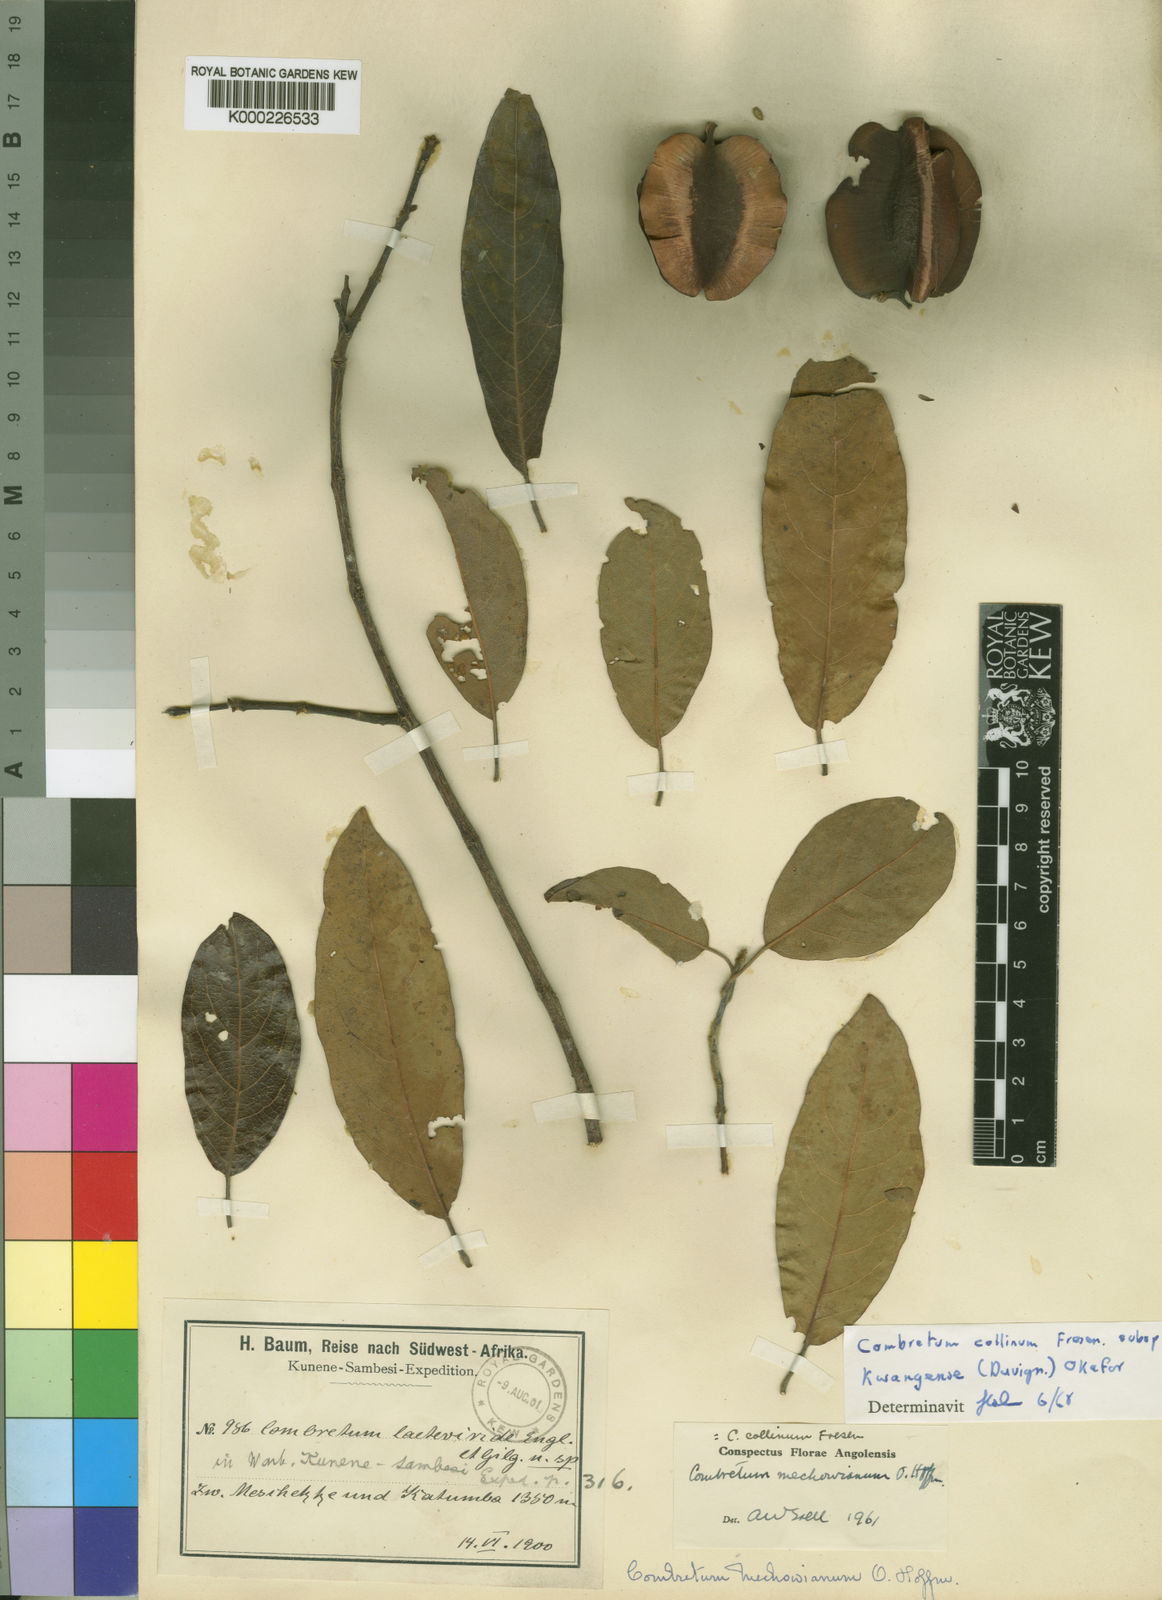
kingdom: Plantae
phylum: Tracheophyta
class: Magnoliopsida
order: Myrtales
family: Combretaceae
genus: Combretum
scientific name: Combretum collinum
